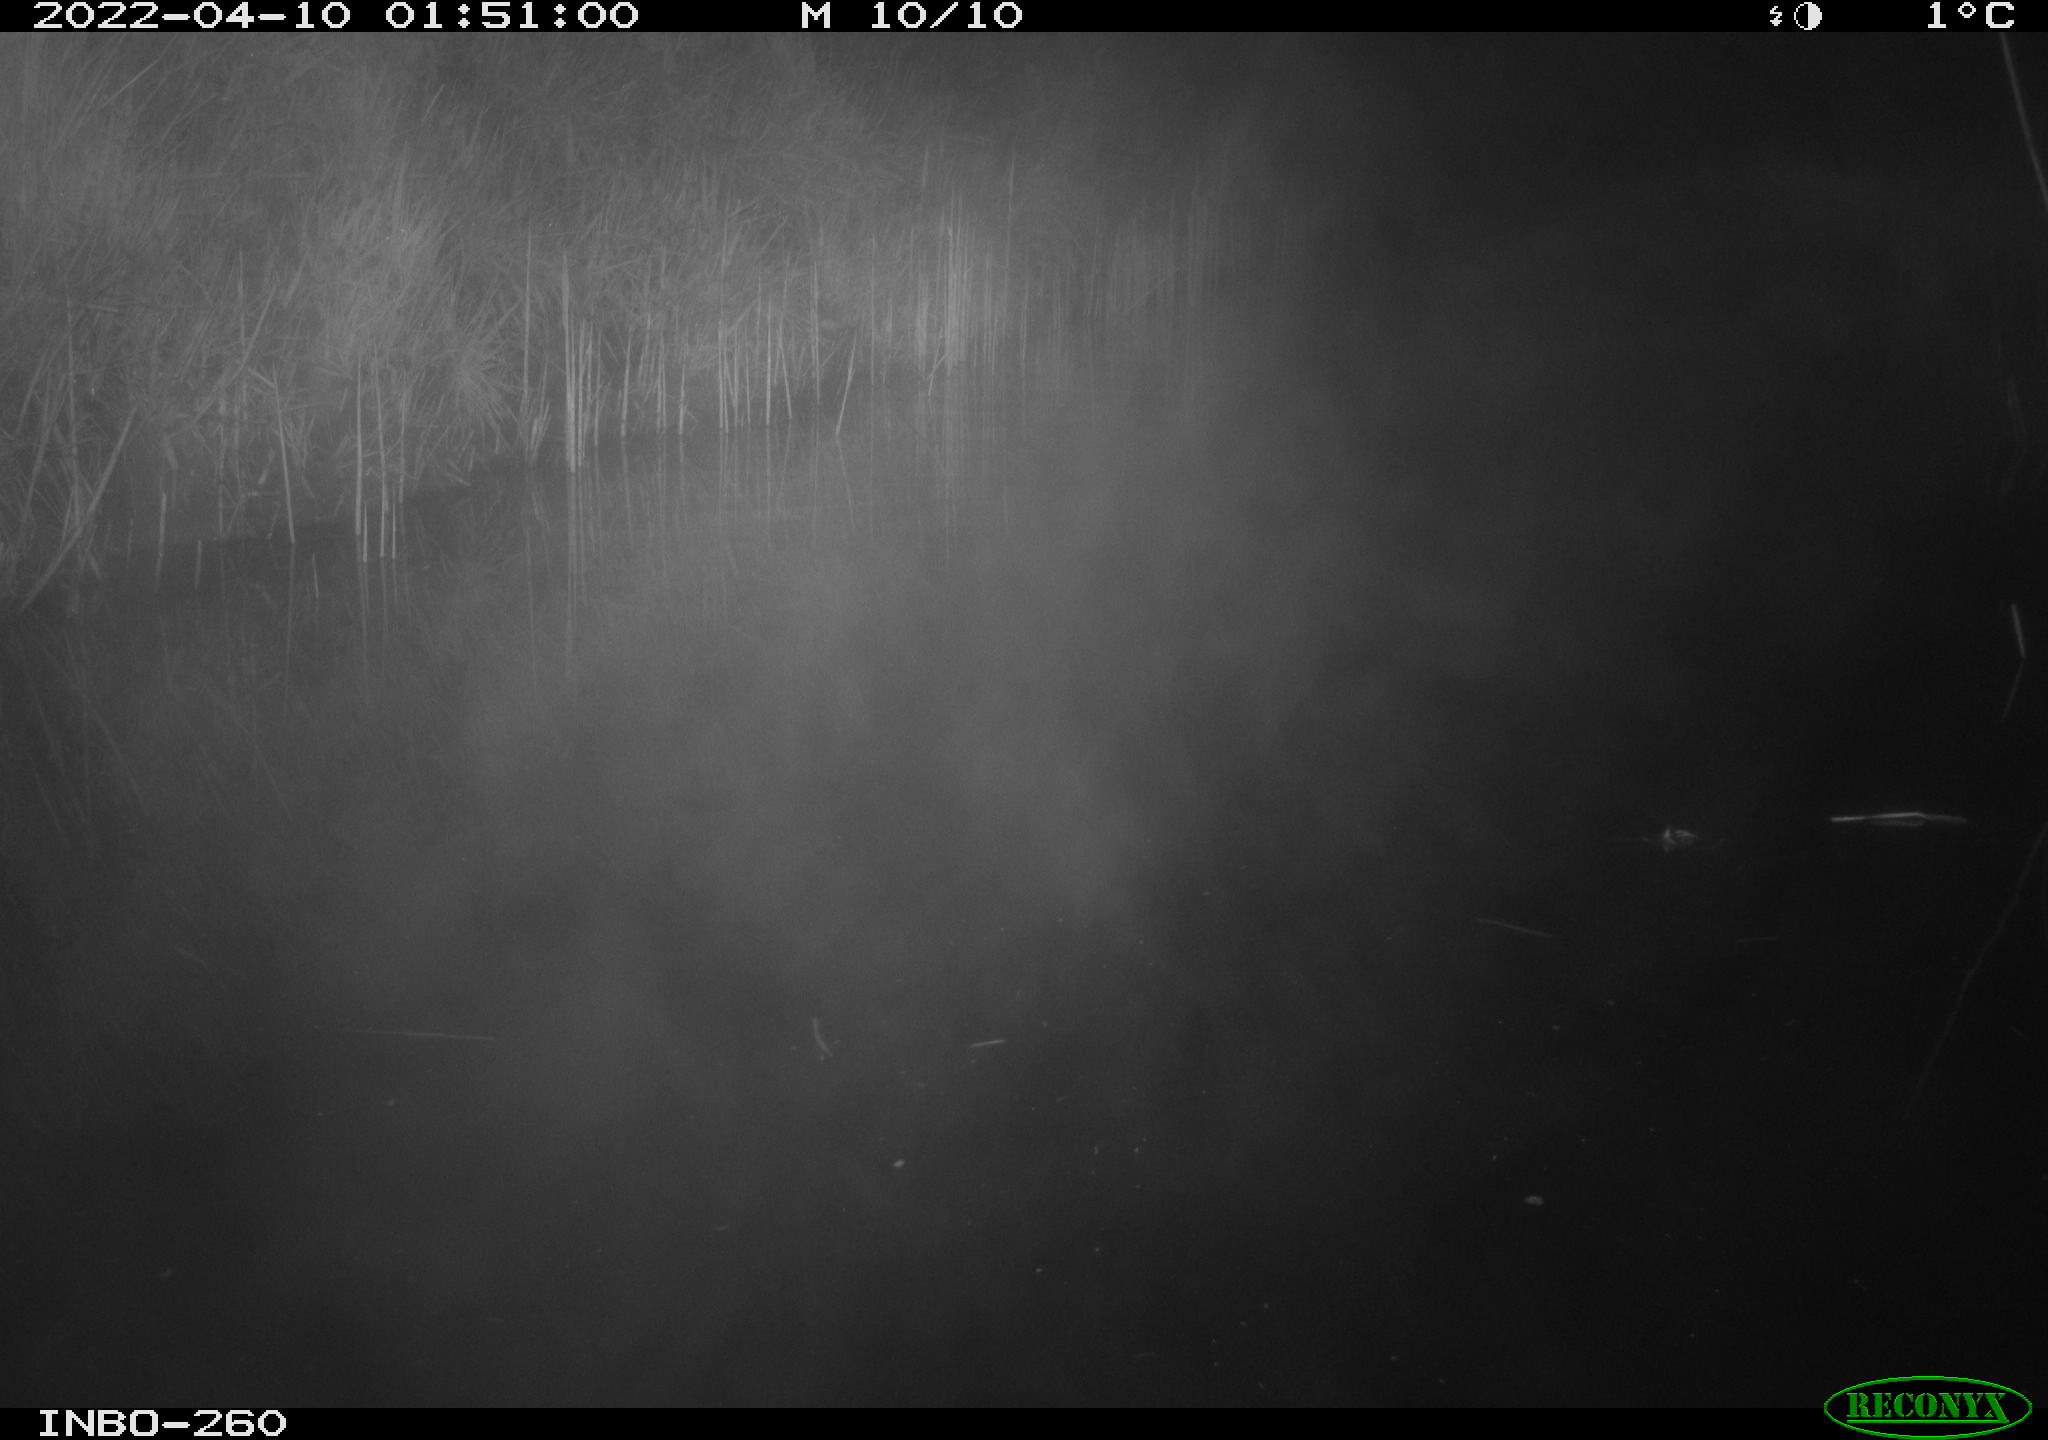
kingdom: Animalia
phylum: Chordata
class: Mammalia
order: Rodentia
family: Muridae
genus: Rattus
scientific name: Rattus norvegicus
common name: Brown rat
